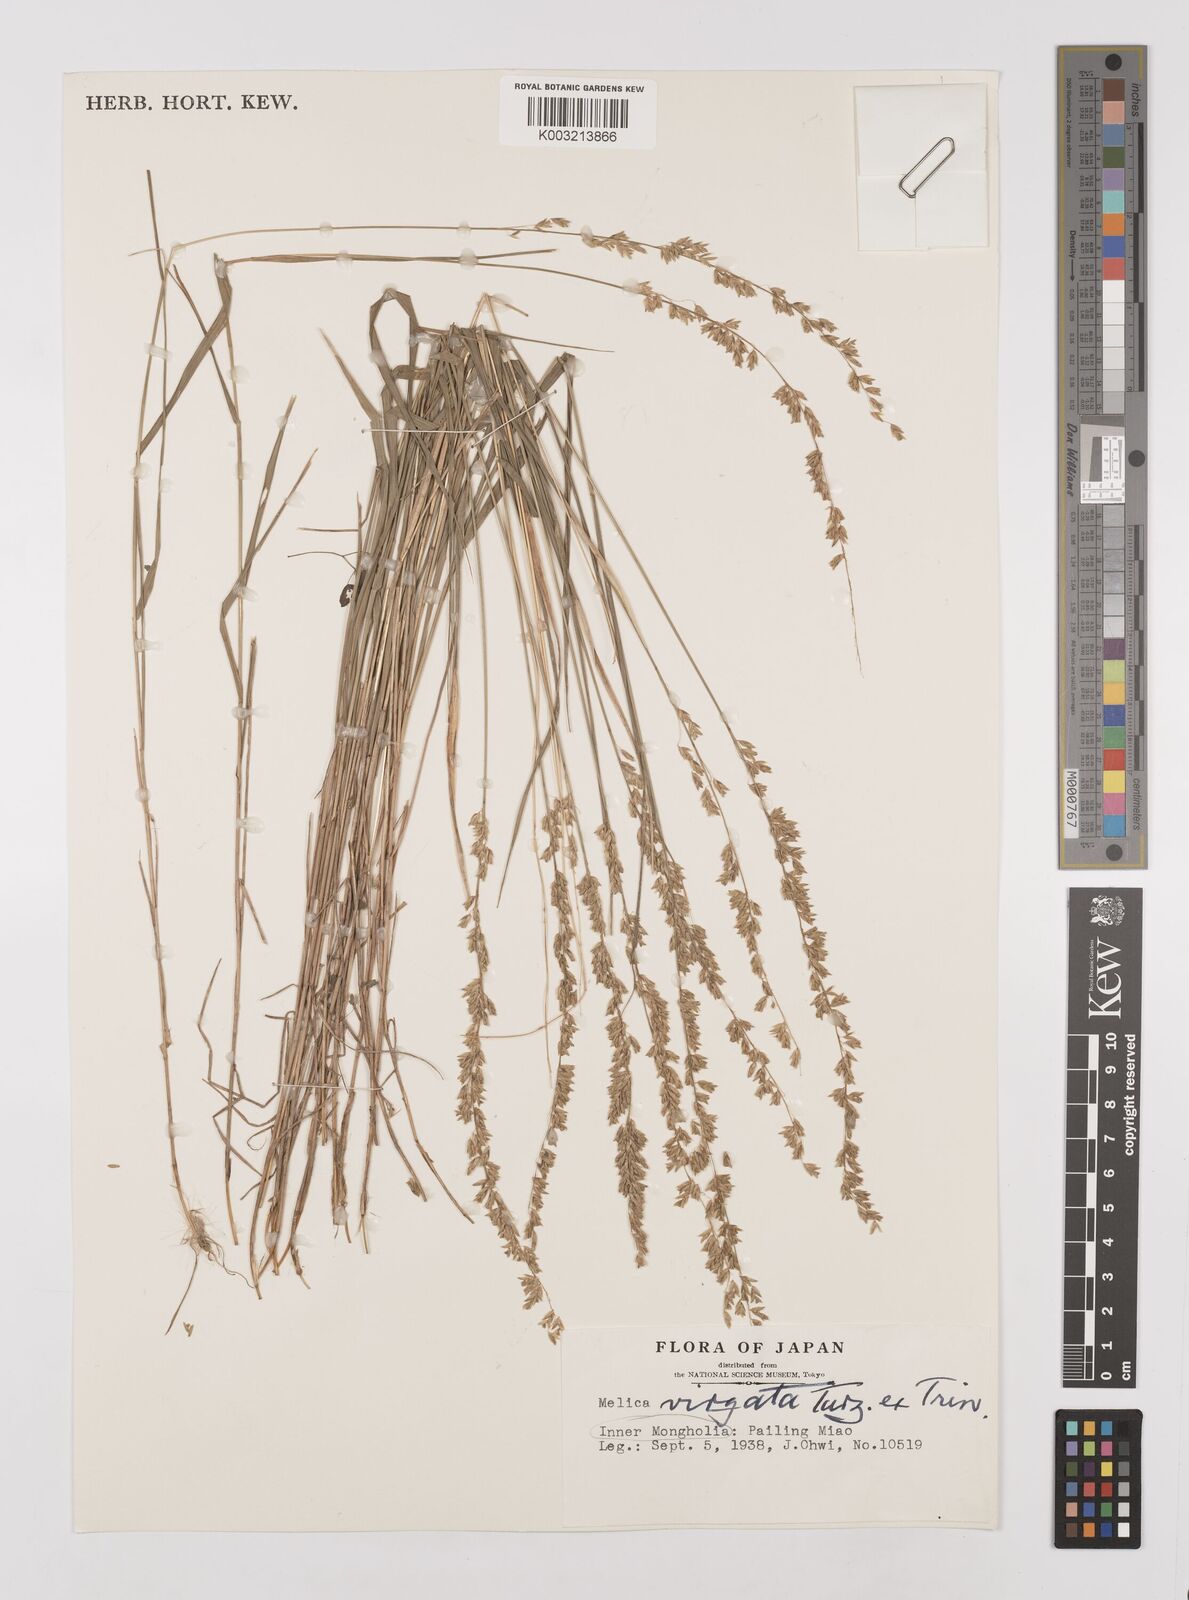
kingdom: Plantae
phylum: Tracheophyta
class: Liliopsida
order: Poales
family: Poaceae
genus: Melica
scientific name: Melica virgata
